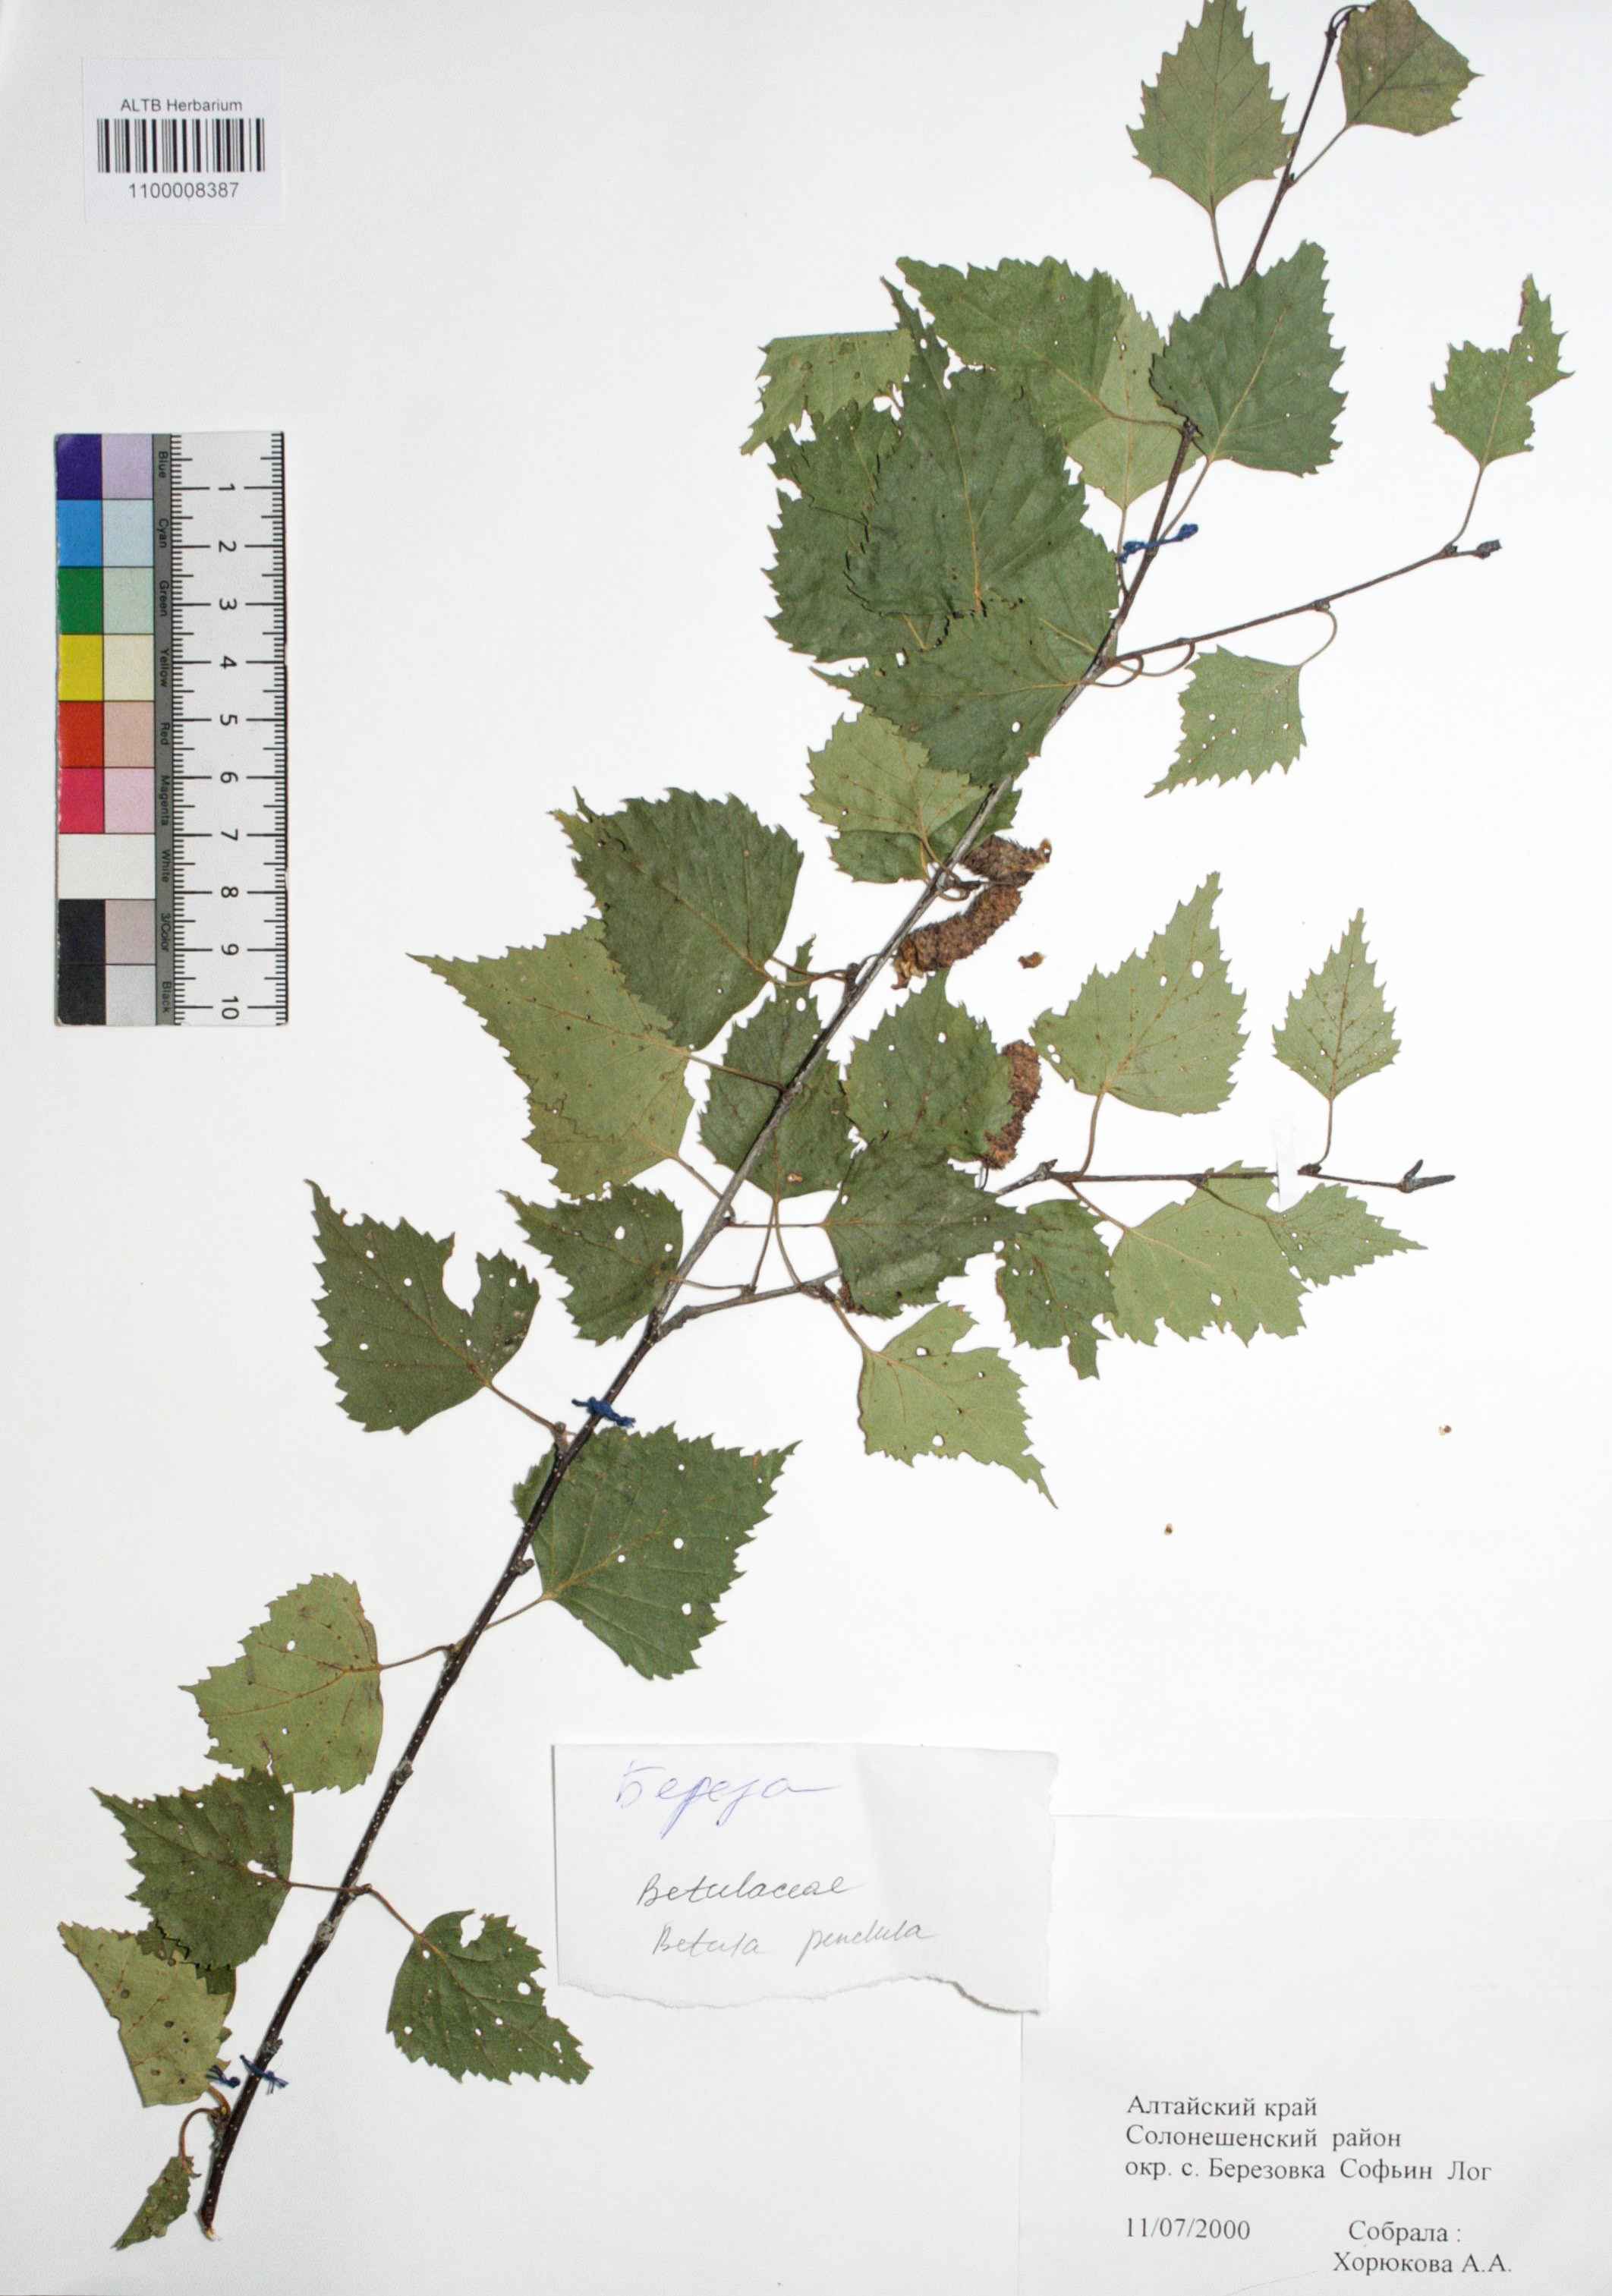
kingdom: Plantae
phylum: Tracheophyta
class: Magnoliopsida
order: Fagales
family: Betulaceae
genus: Betula
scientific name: Betula pendula
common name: Silver birch
